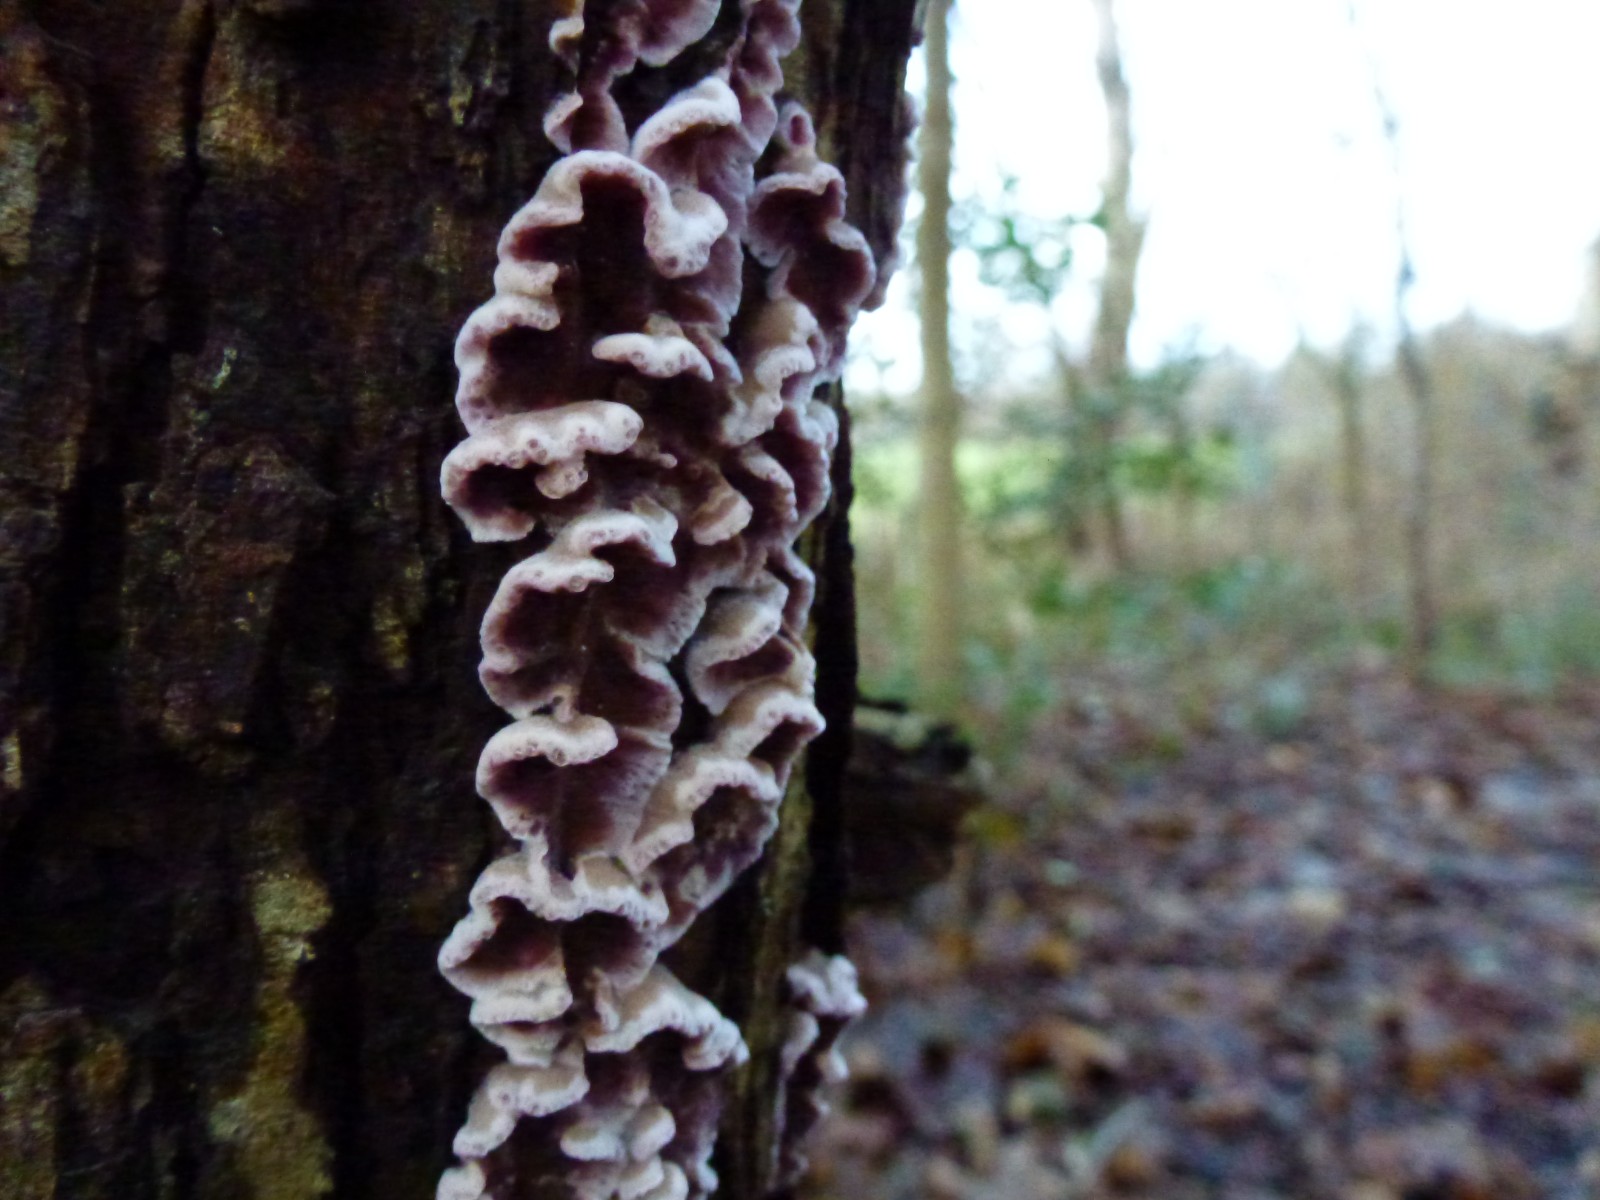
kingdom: Fungi
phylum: Basidiomycota
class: Agaricomycetes
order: Agaricales
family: Cyphellaceae
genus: Chondrostereum
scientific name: Chondrostereum purpureum
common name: purpurlædersvamp
